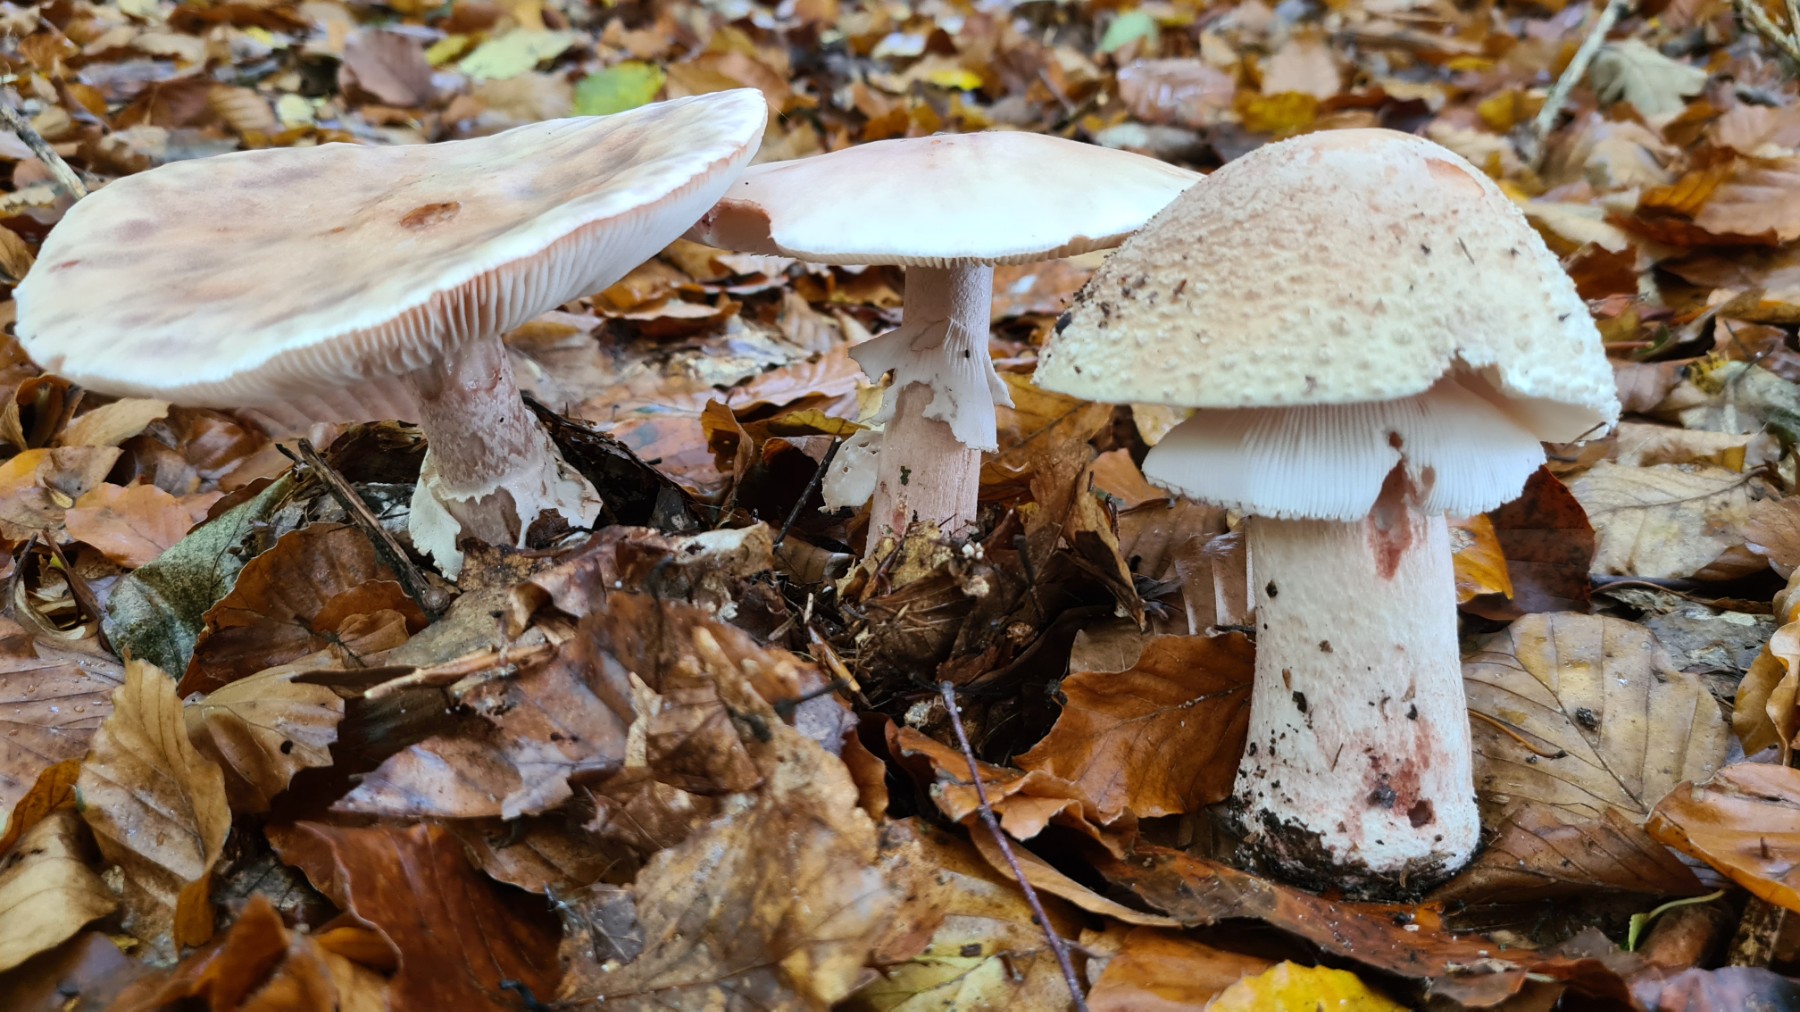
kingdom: Fungi
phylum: Basidiomycota
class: Agaricomycetes
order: Agaricales
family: Amanitaceae
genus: Amanita
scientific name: Amanita rubescens
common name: rødmende fluesvamp
